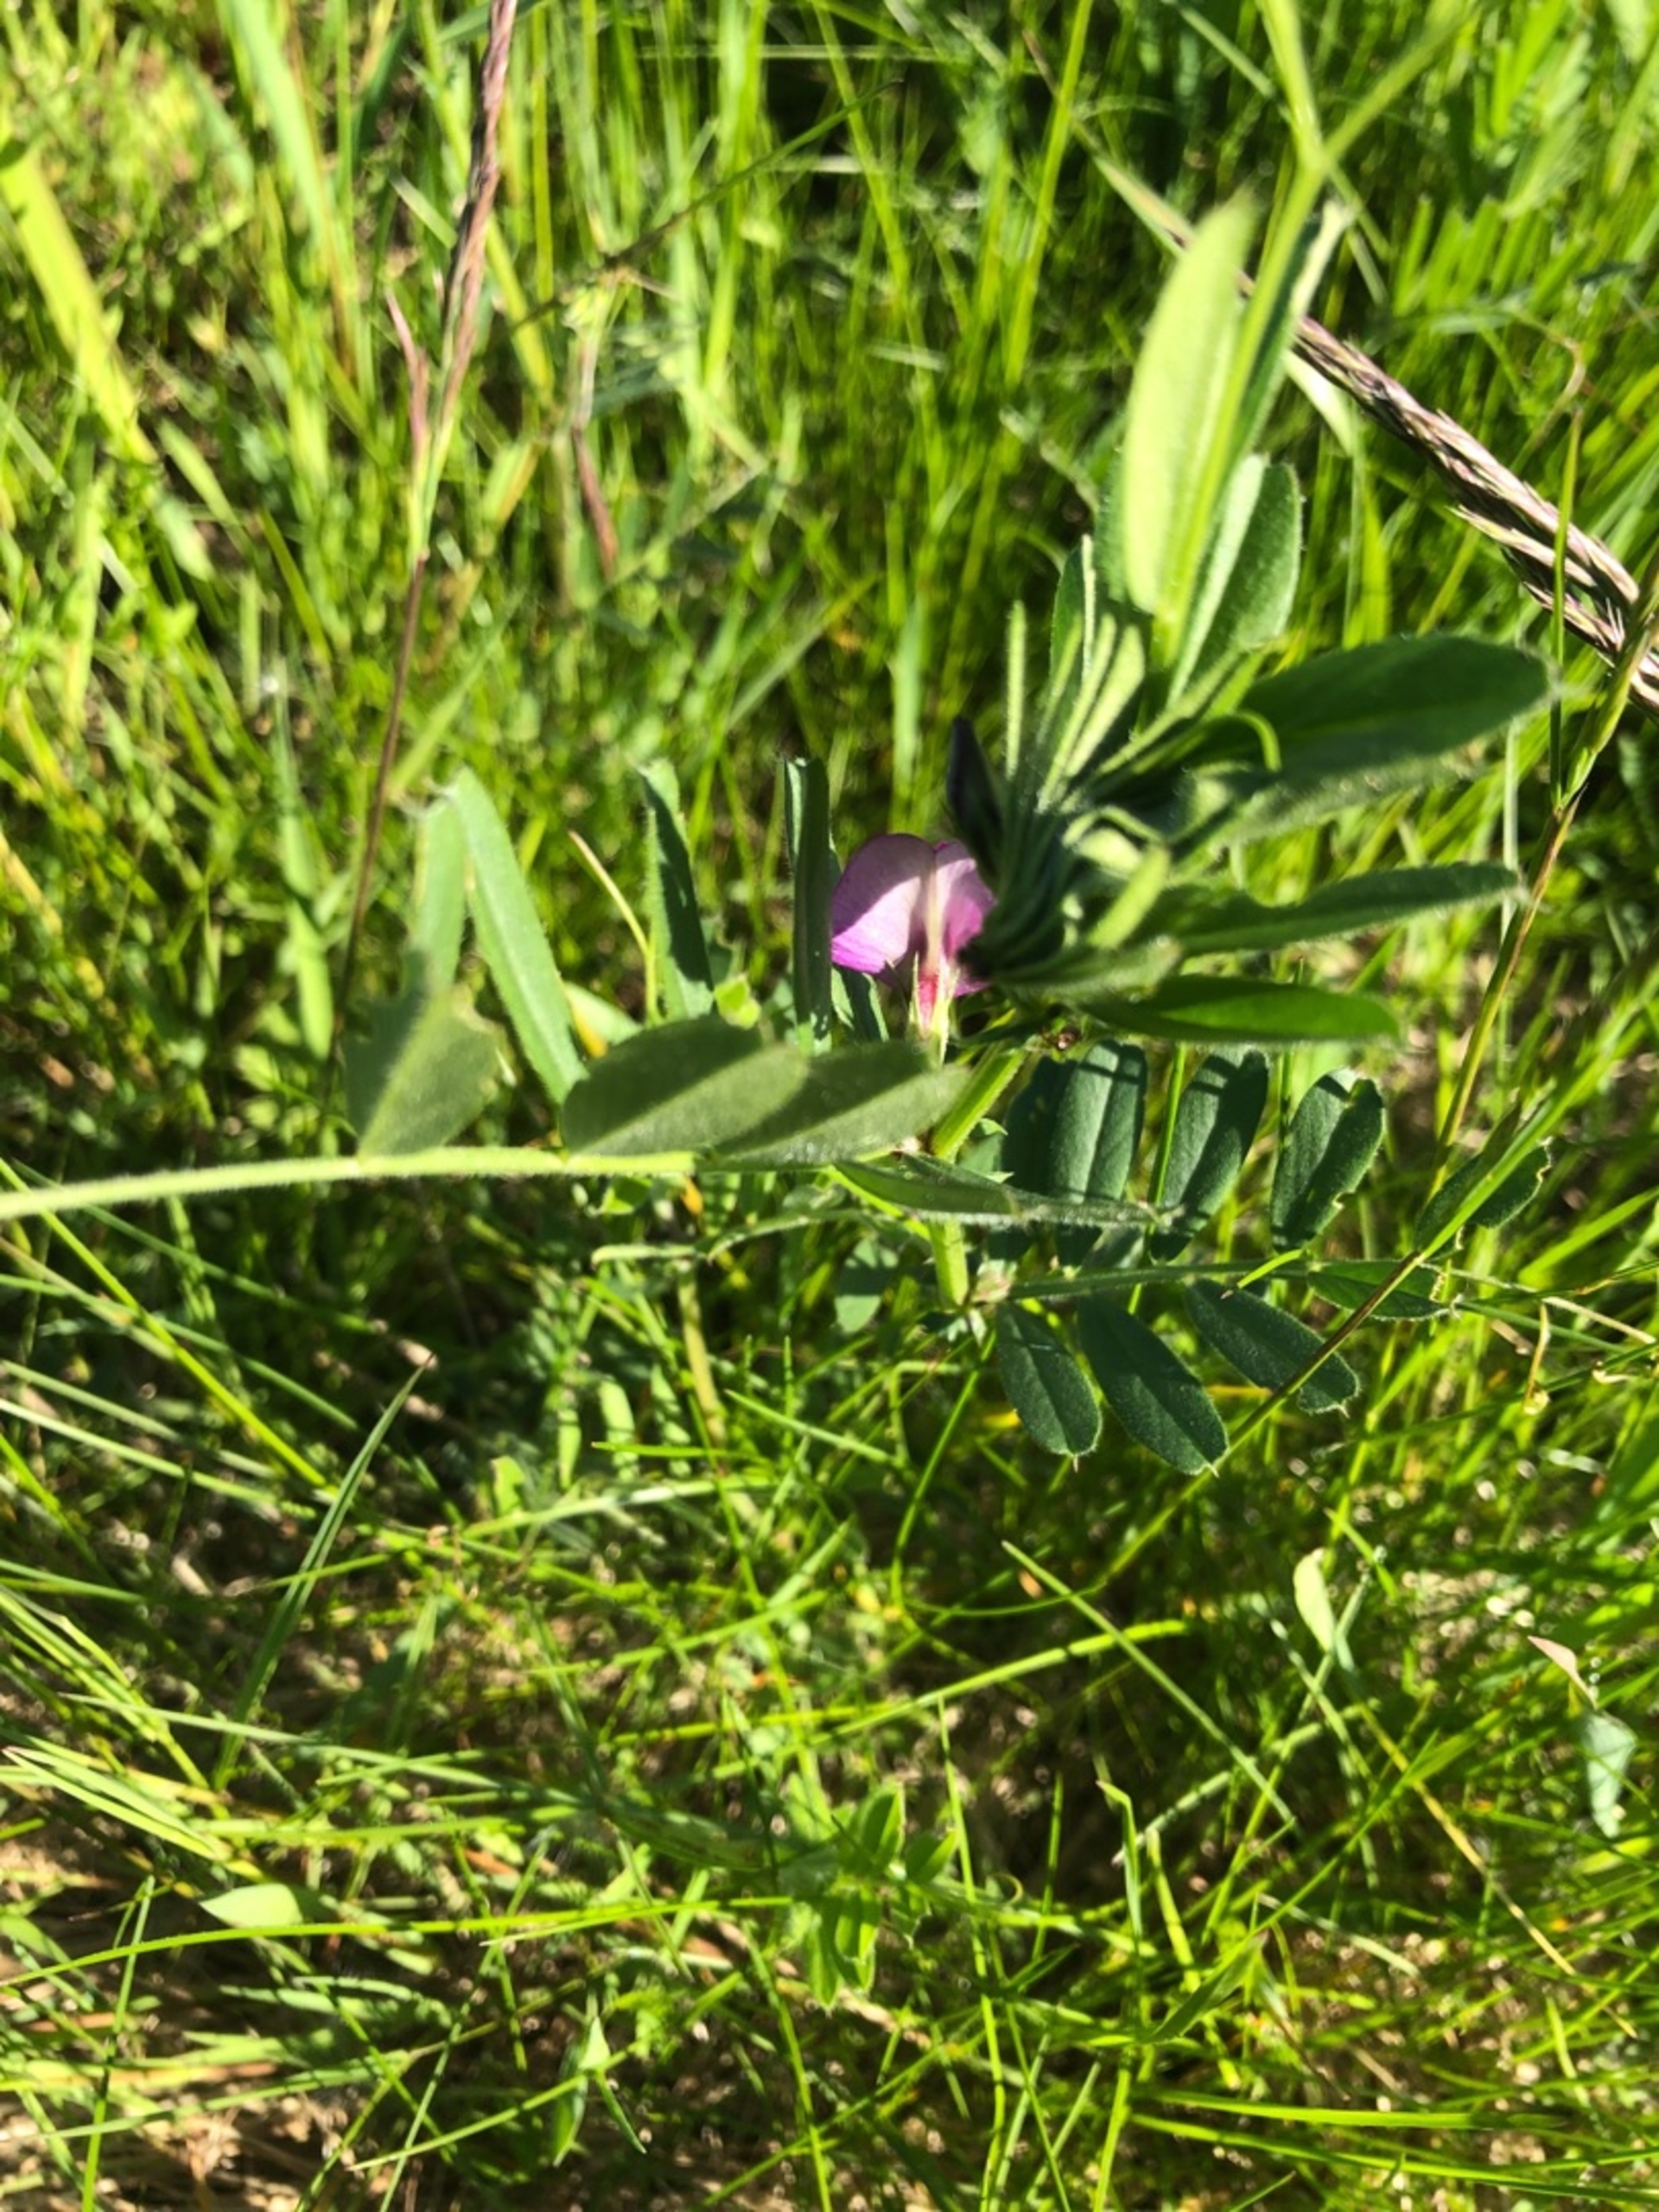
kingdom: Plantae
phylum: Tracheophyta
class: Magnoliopsida
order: Fabales
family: Fabaceae
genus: Vicia
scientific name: Vicia sativa
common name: Foder-vikke
